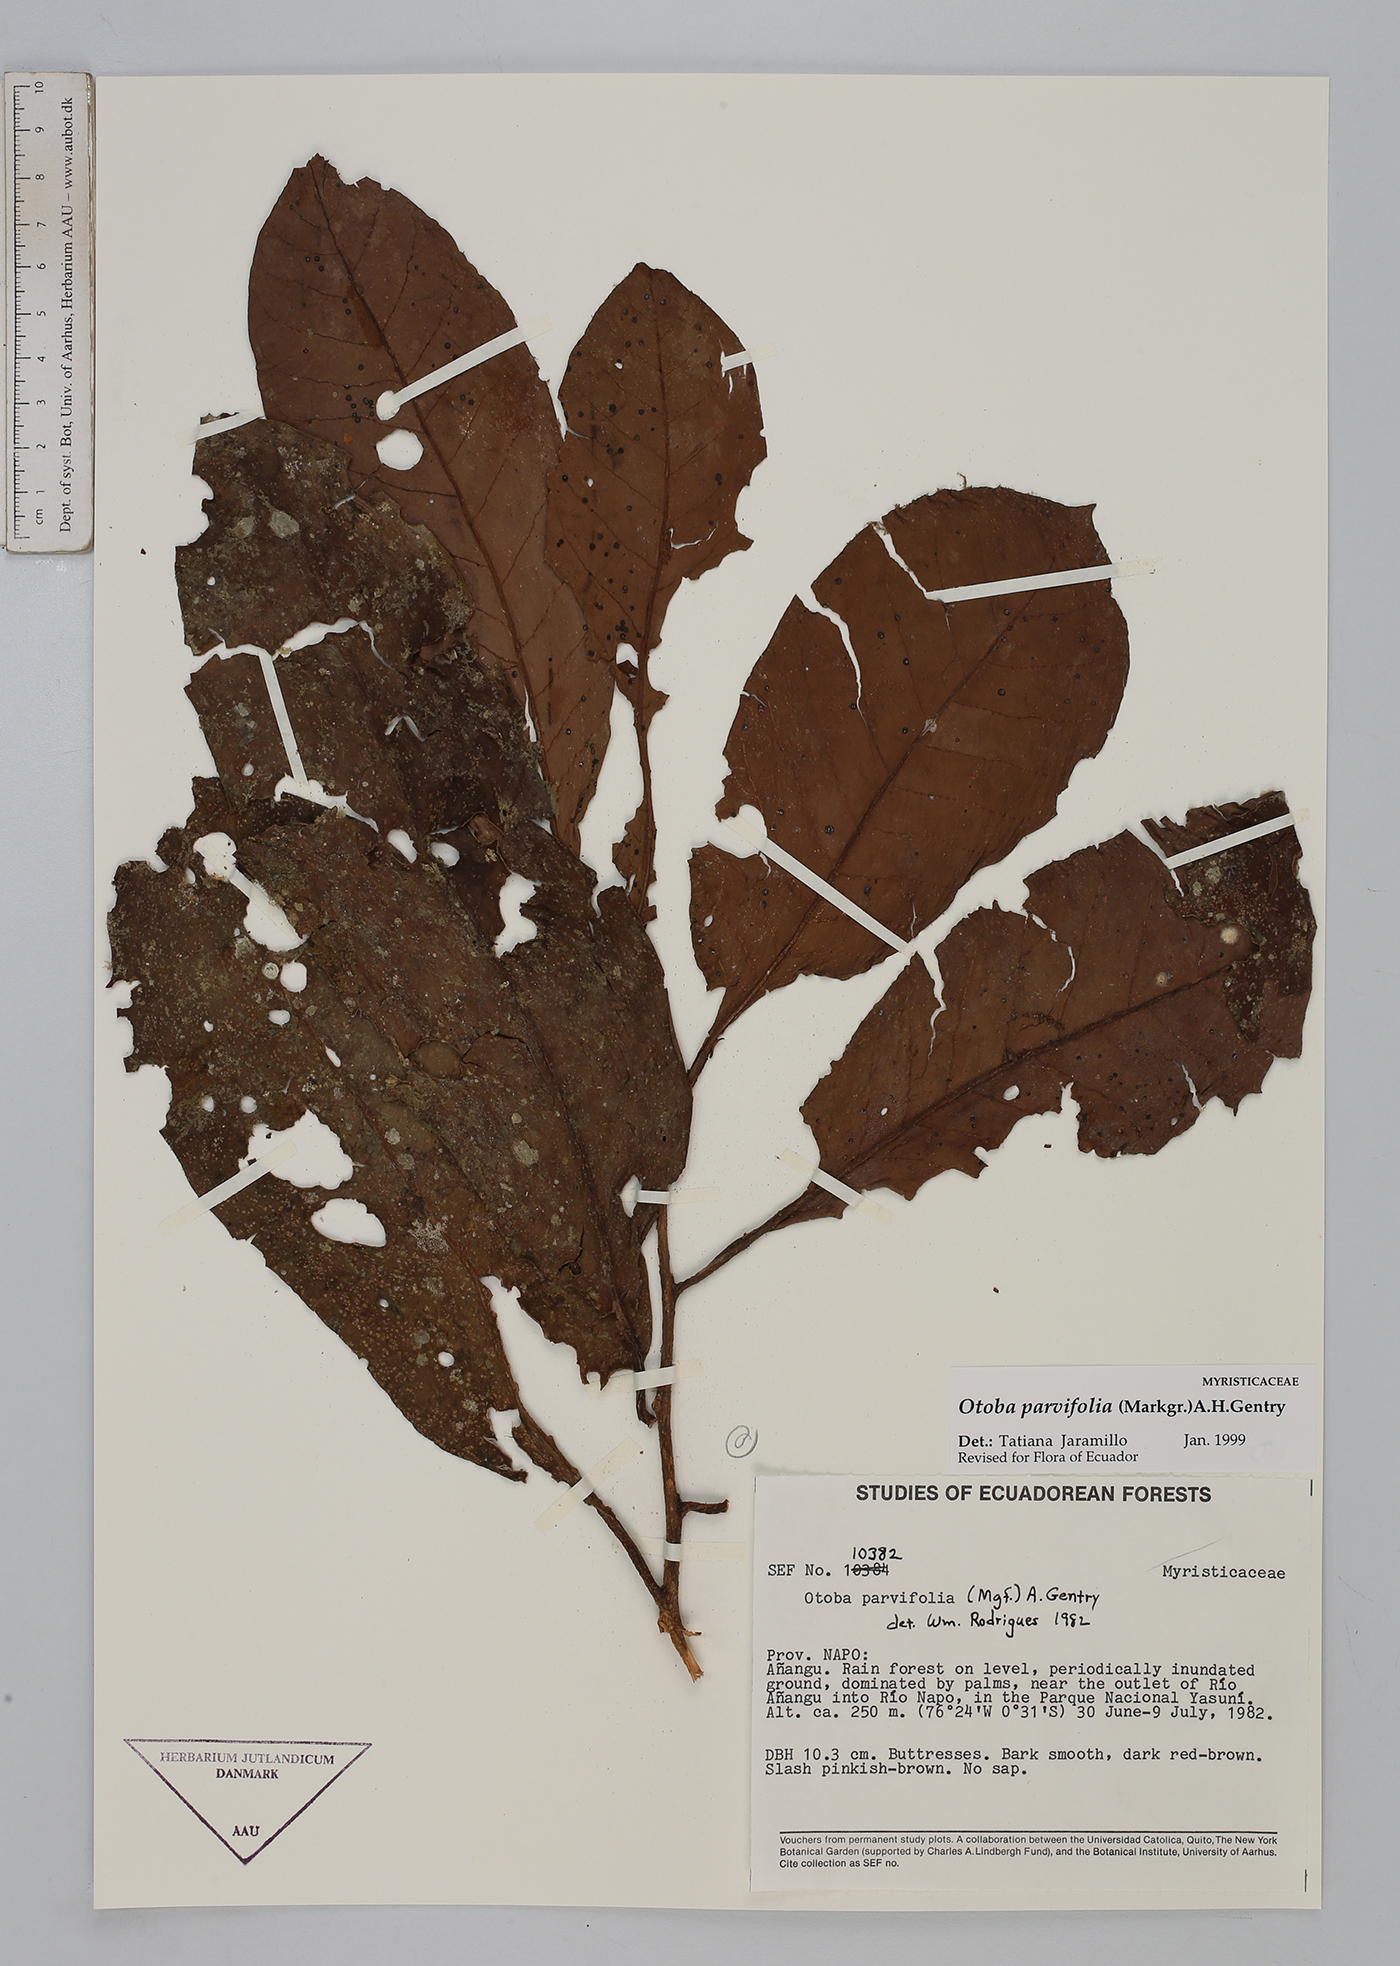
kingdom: Plantae
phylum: Tracheophyta
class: Magnoliopsida
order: Magnoliales
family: Myristicaceae
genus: Otoba
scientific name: Otoba parvifolia
